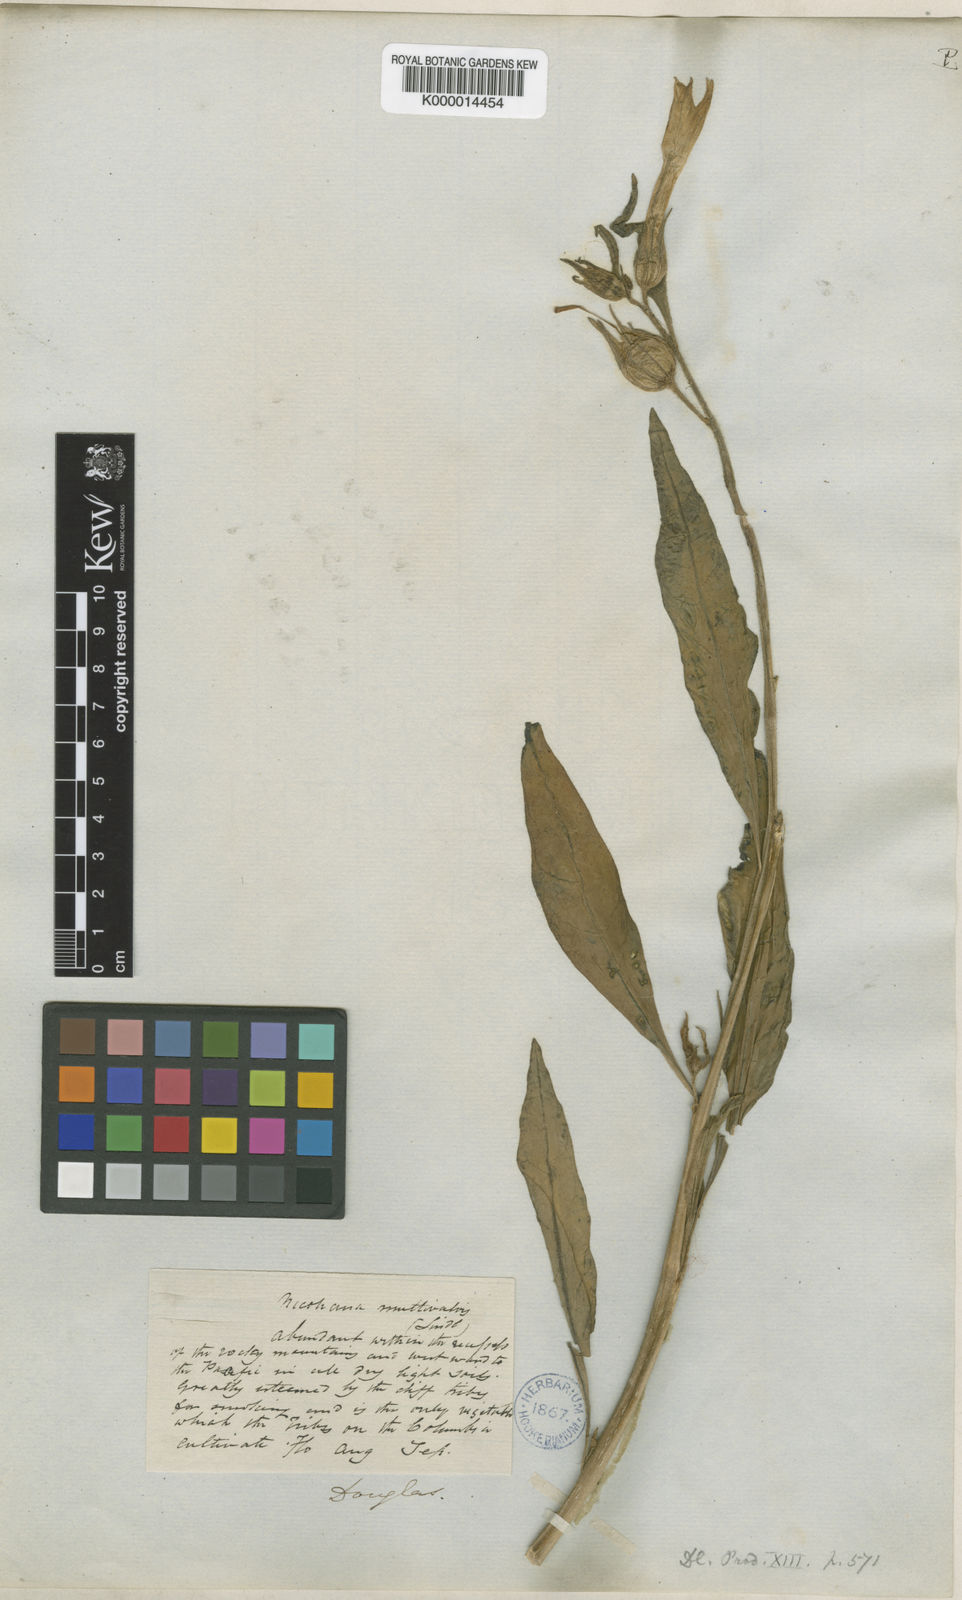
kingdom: Plantae
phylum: Tracheophyta
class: Magnoliopsida
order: Solanales
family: Solanaceae
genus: Nicotiana
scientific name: Nicotiana quadrivalvis
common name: Indian tobacco
